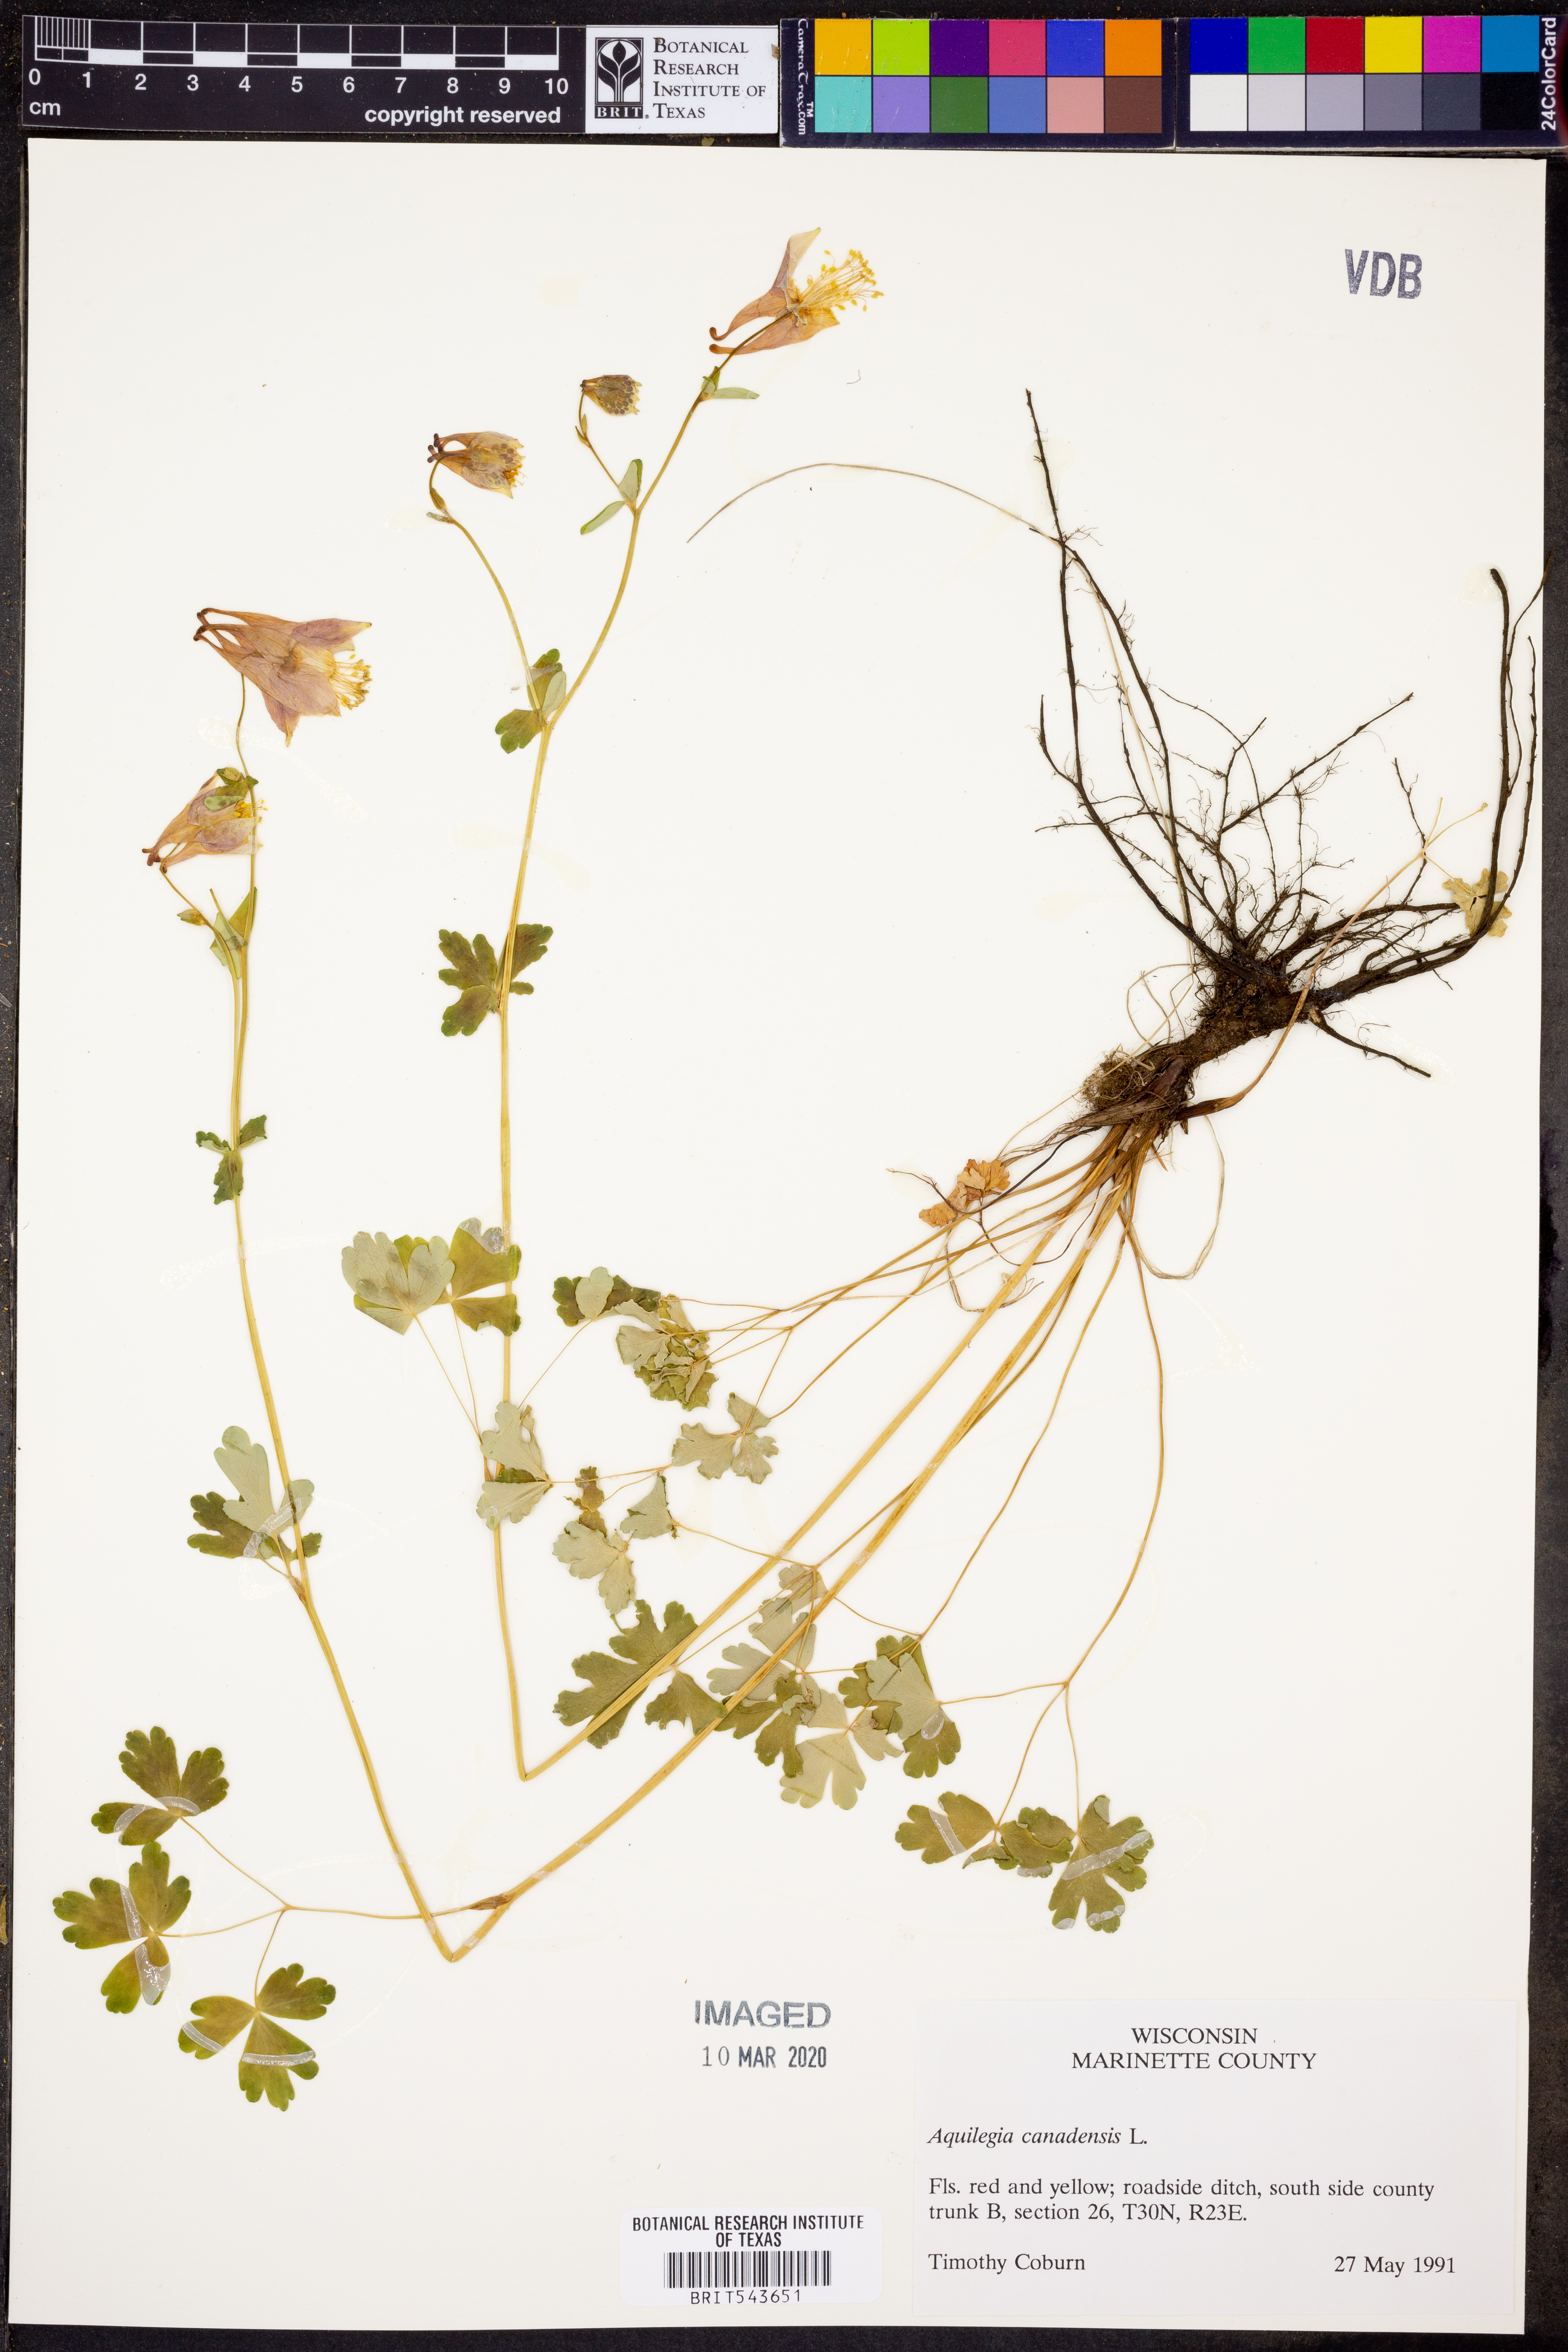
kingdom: Plantae
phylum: Tracheophyta
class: Magnoliopsida
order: Ranunculales
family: Ranunculaceae
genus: Aquilegia
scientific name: Aquilegia canadensis
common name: American columbine
